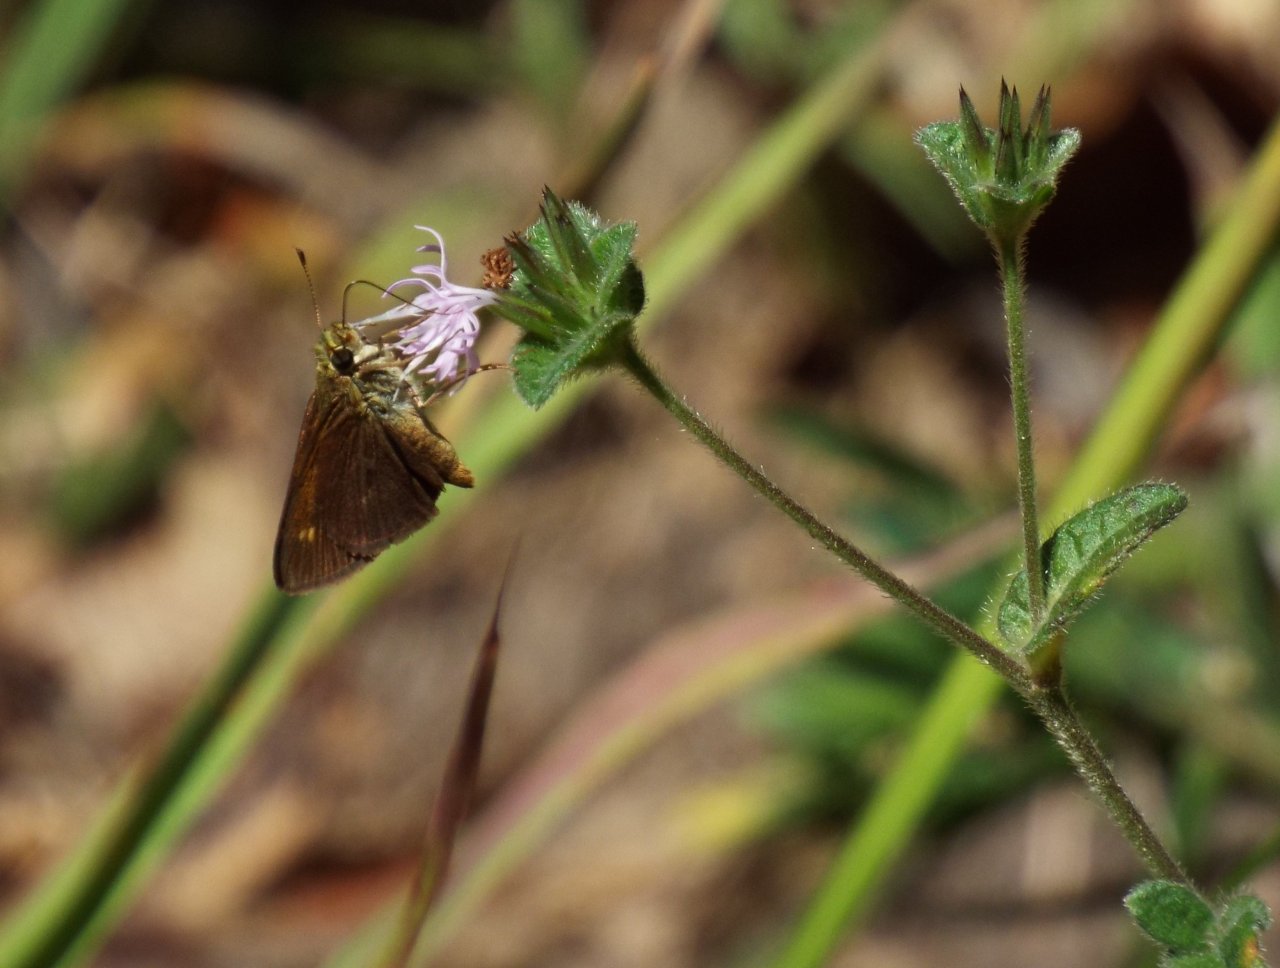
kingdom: Animalia
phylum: Arthropoda
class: Insecta
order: Lepidoptera
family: Hesperiidae
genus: Euphyes
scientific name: Euphyes vestris
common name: Dun Skipper
